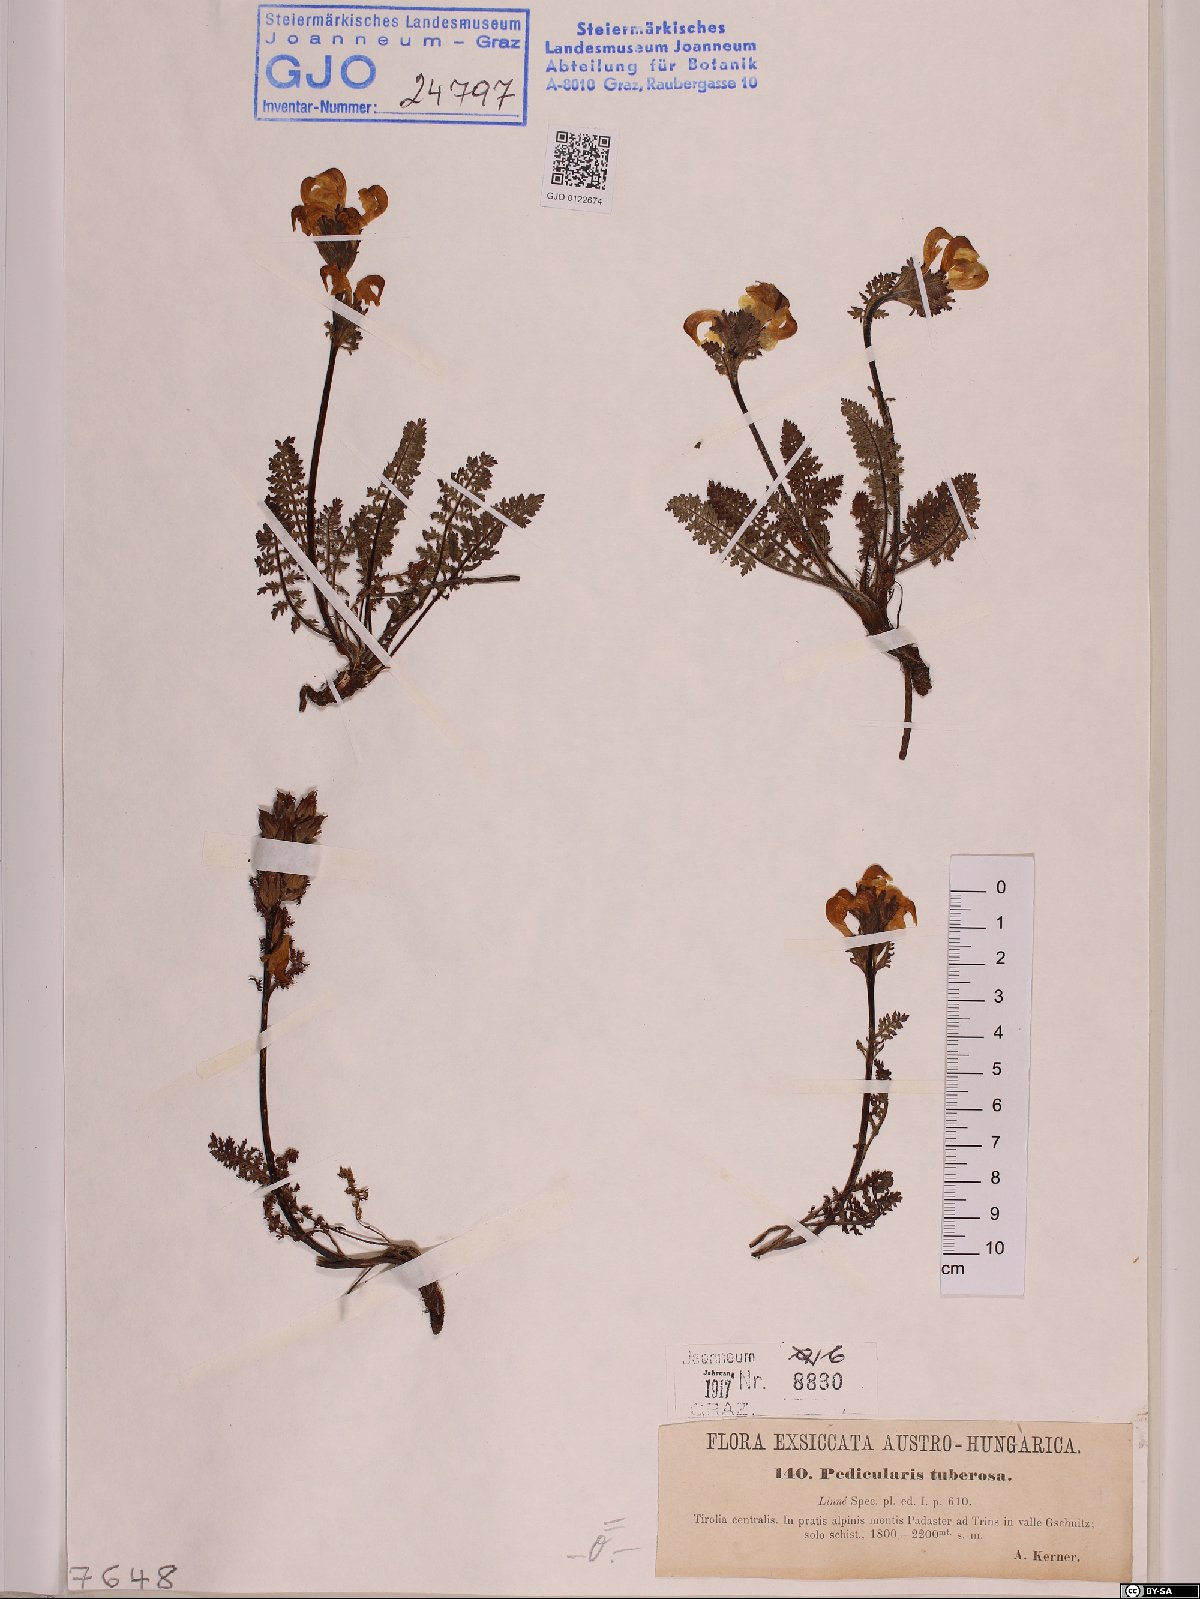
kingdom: Plantae
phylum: Tracheophyta
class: Magnoliopsida
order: Lamiales
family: Orobanchaceae
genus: Pedicularis
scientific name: Pedicularis tuberosa
